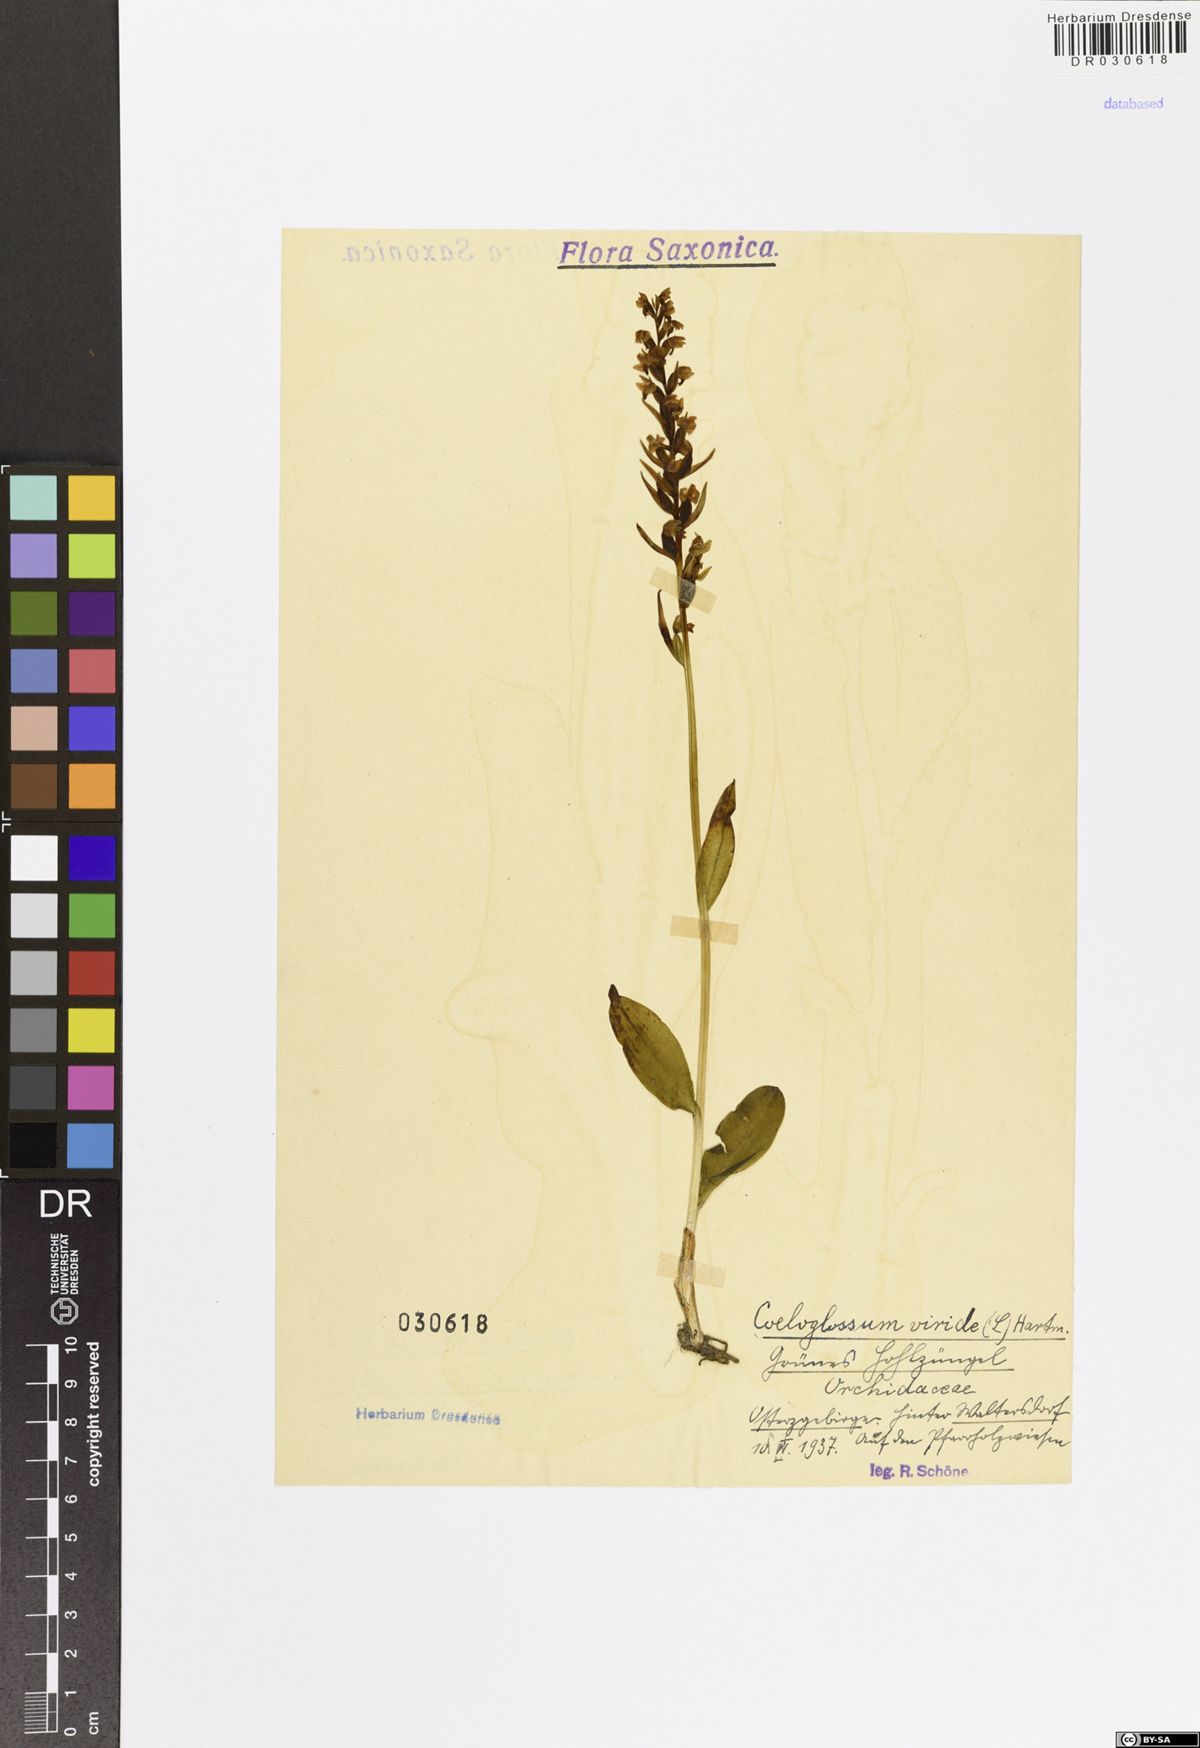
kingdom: Plantae
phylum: Tracheophyta
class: Liliopsida
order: Asparagales
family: Orchidaceae
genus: Dactylorhiza
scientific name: Dactylorhiza viridis
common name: Longbract frog orchid
